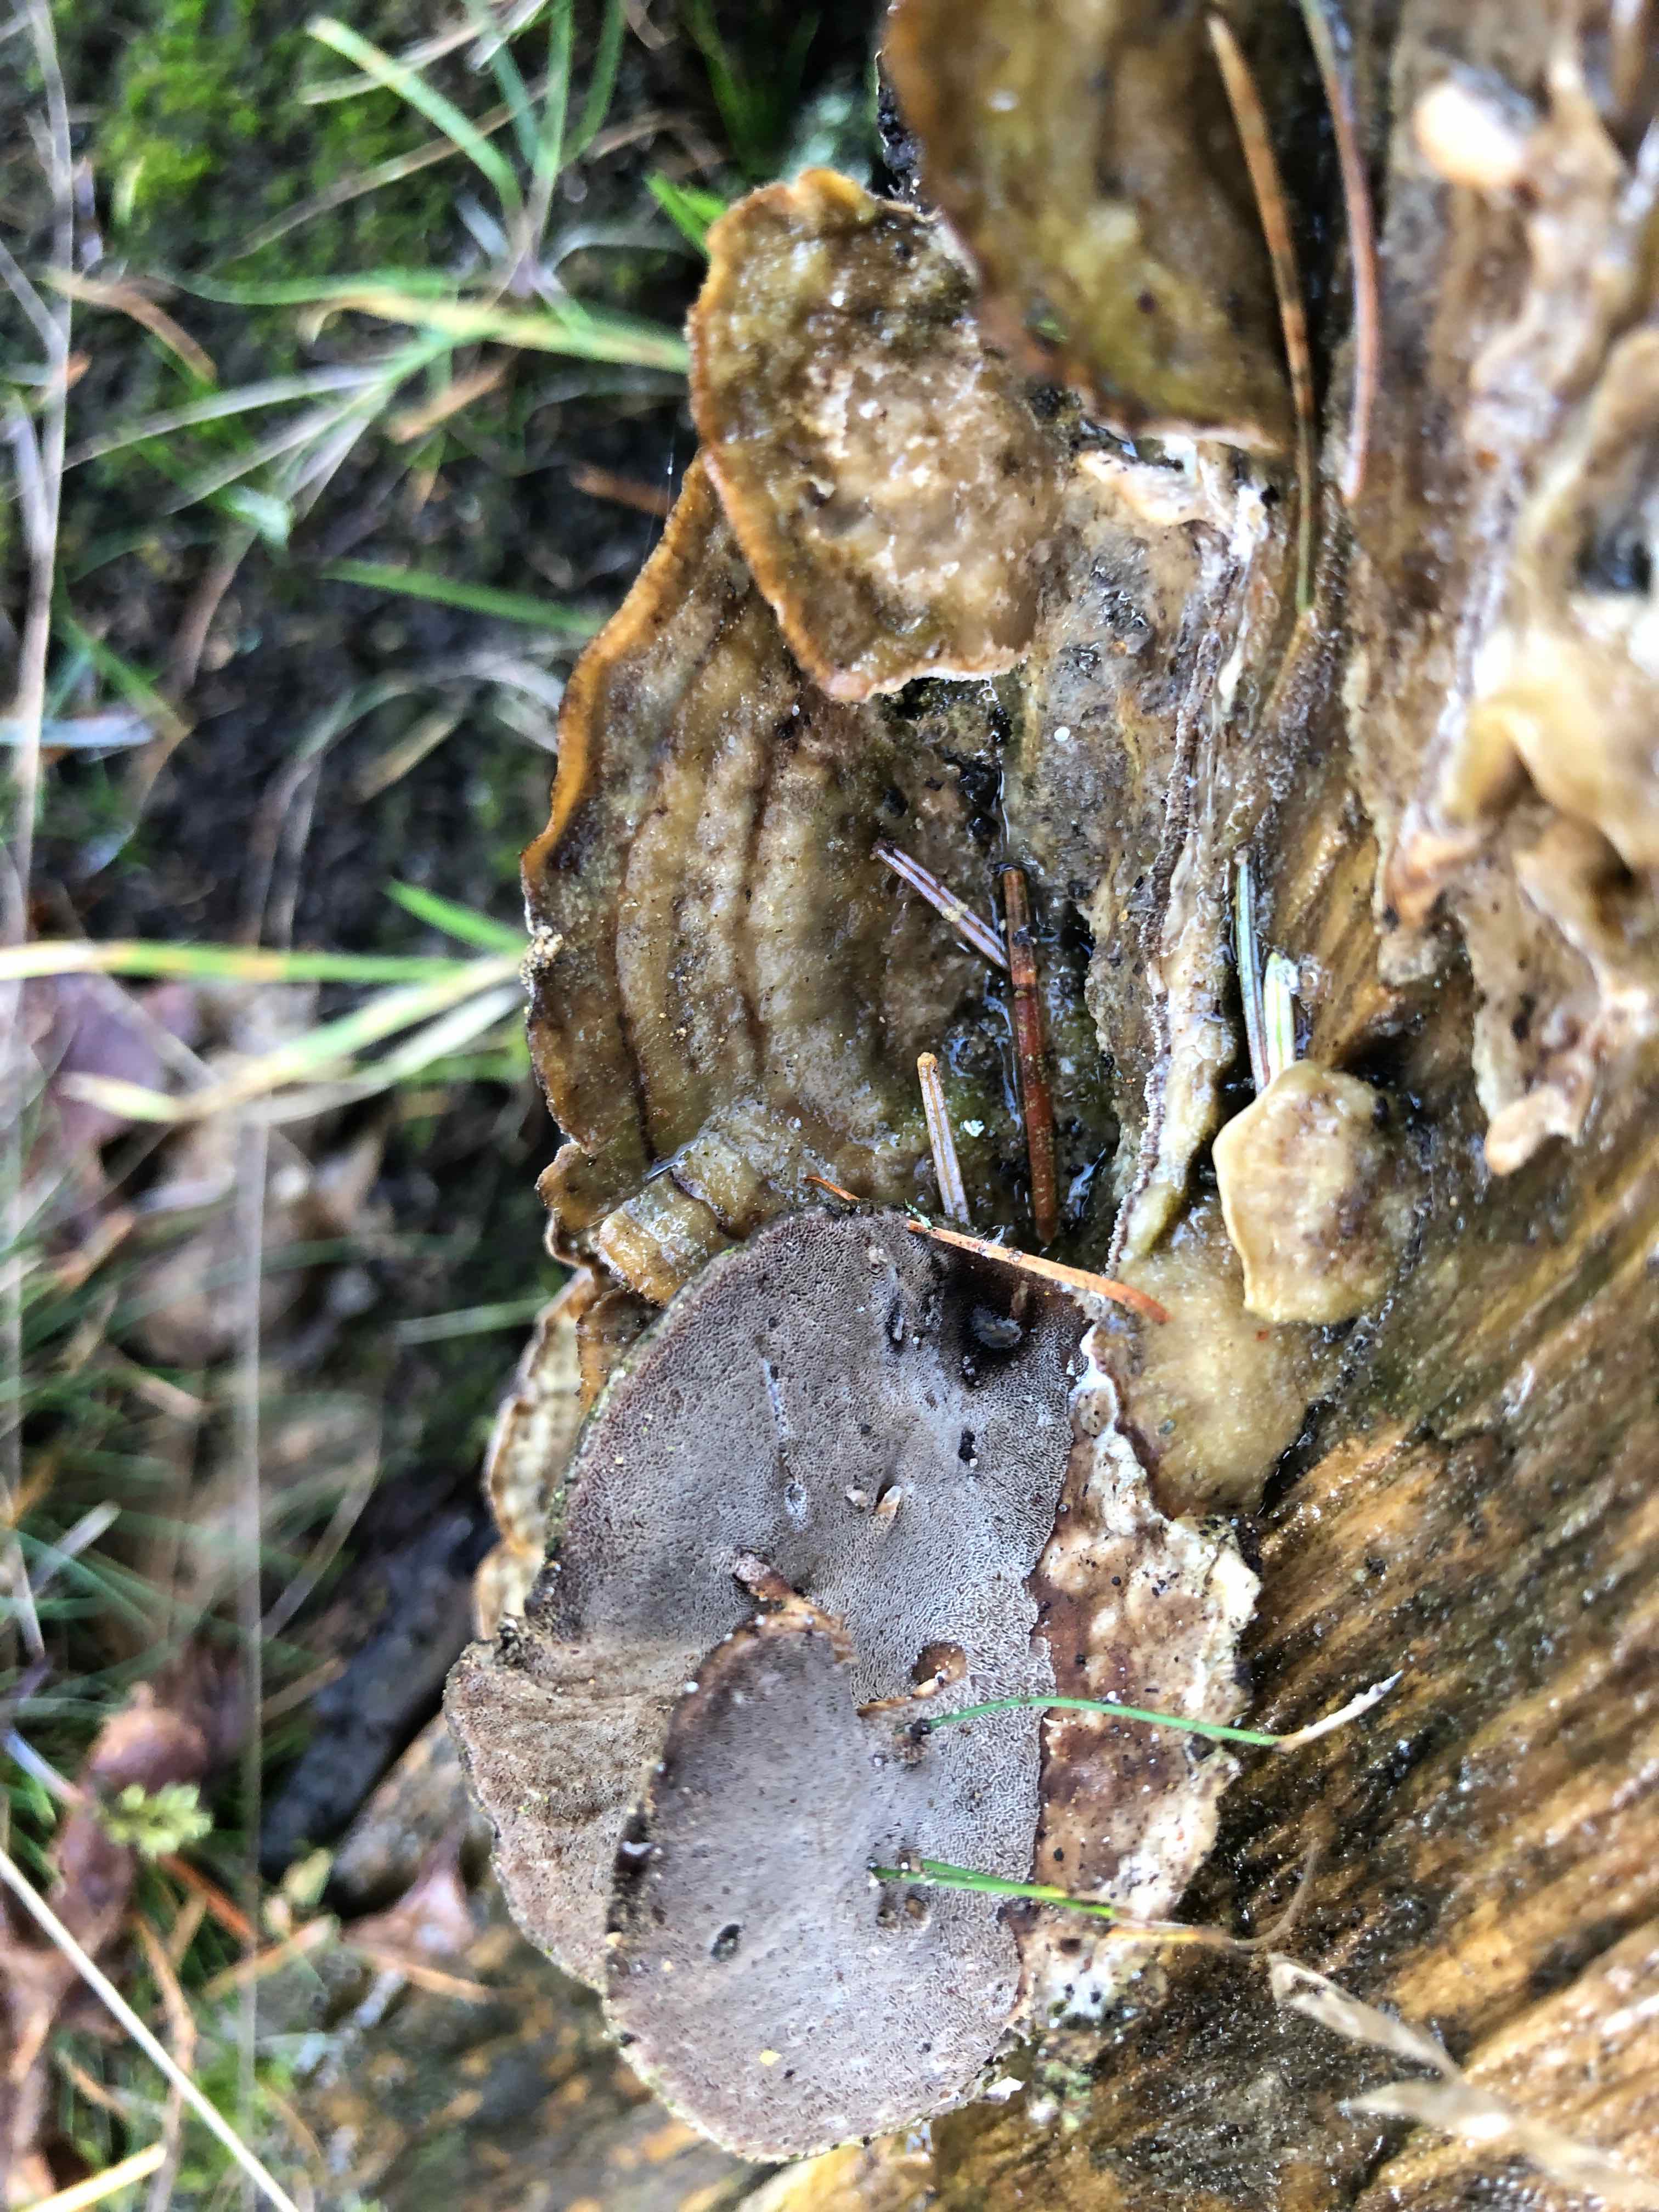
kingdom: Fungi
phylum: Basidiomycota
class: Agaricomycetes
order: Polyporales
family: Phanerochaetaceae
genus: Bjerkandera
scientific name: Bjerkandera adusta
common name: sveden sodporesvamp
